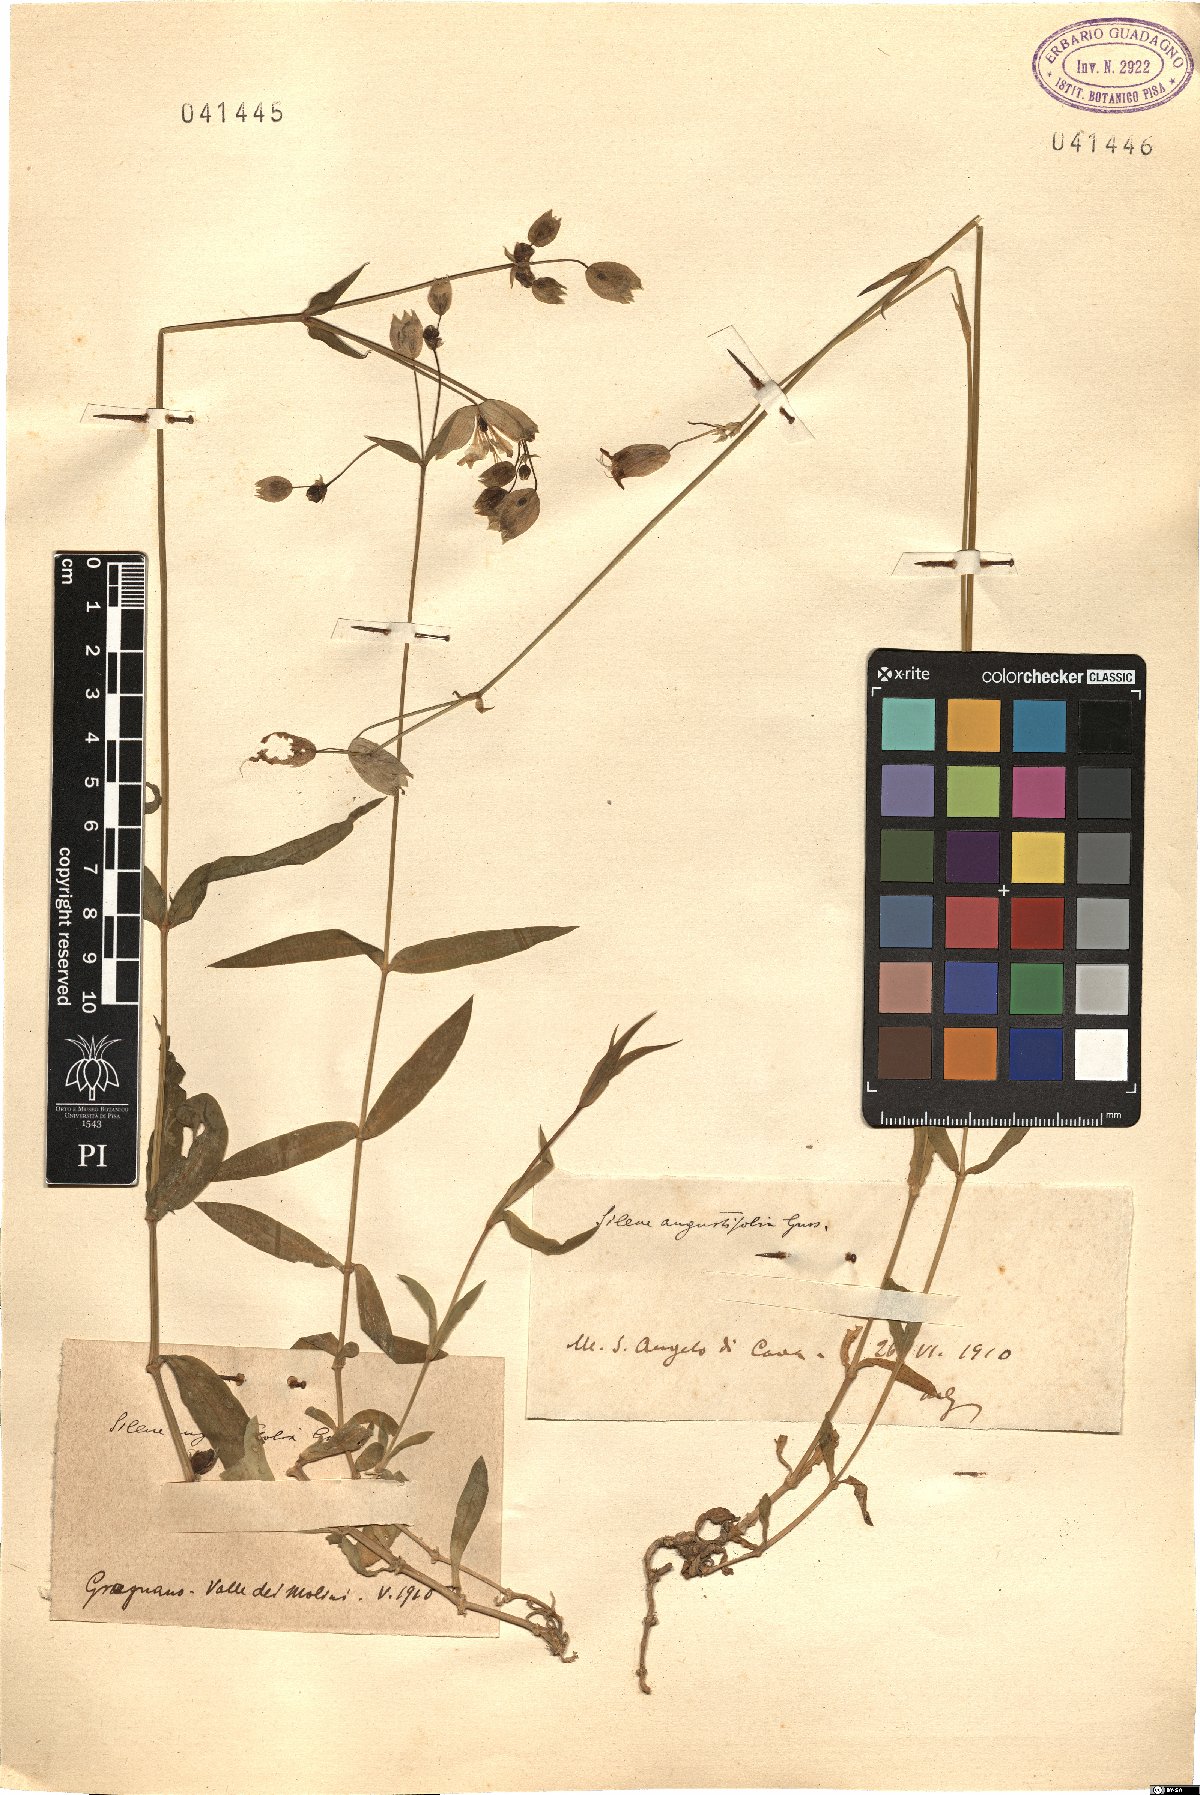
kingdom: Plantae
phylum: Tracheophyta
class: Magnoliopsida
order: Caryophyllales
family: Caryophyllaceae
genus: Silene
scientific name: Silene vulgaris
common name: Bladder campion
